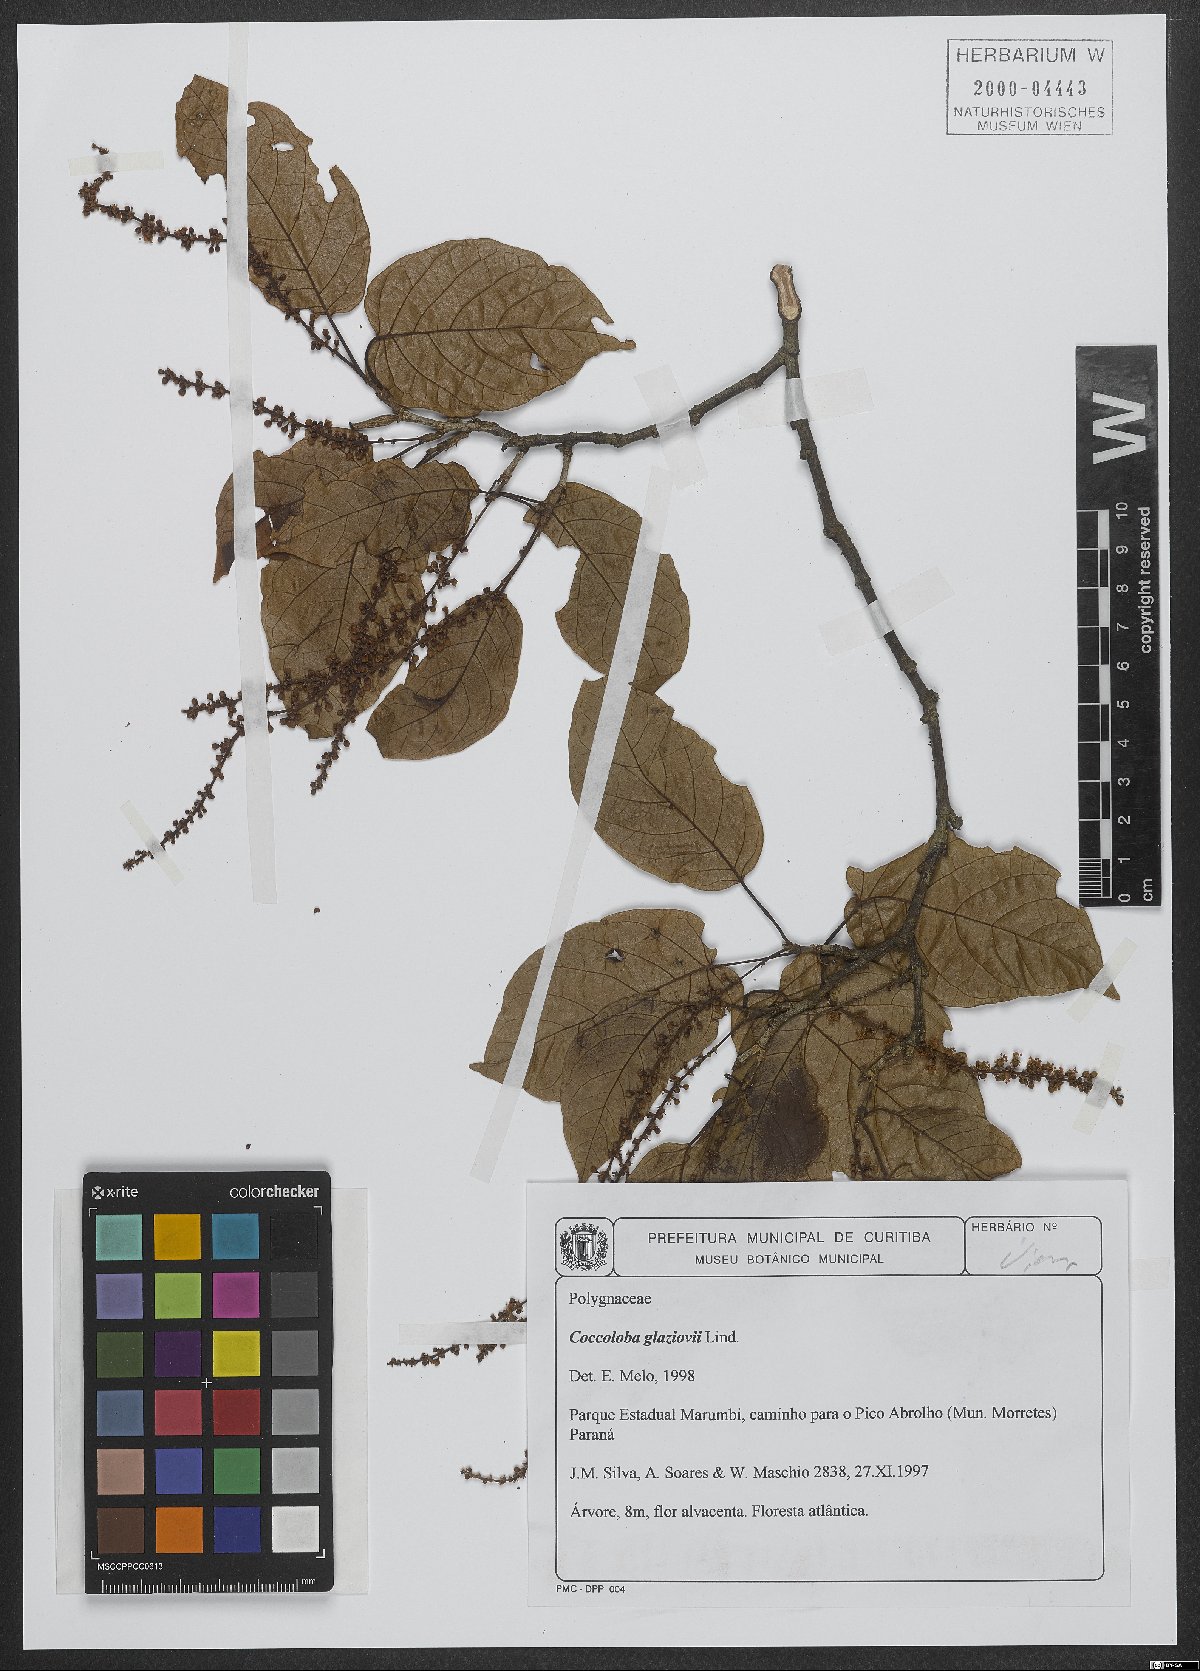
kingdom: Plantae
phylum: Tracheophyta
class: Magnoliopsida
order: Caryophyllales
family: Polygonaceae
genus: Coccoloba
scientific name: Coccoloba glaziovii
